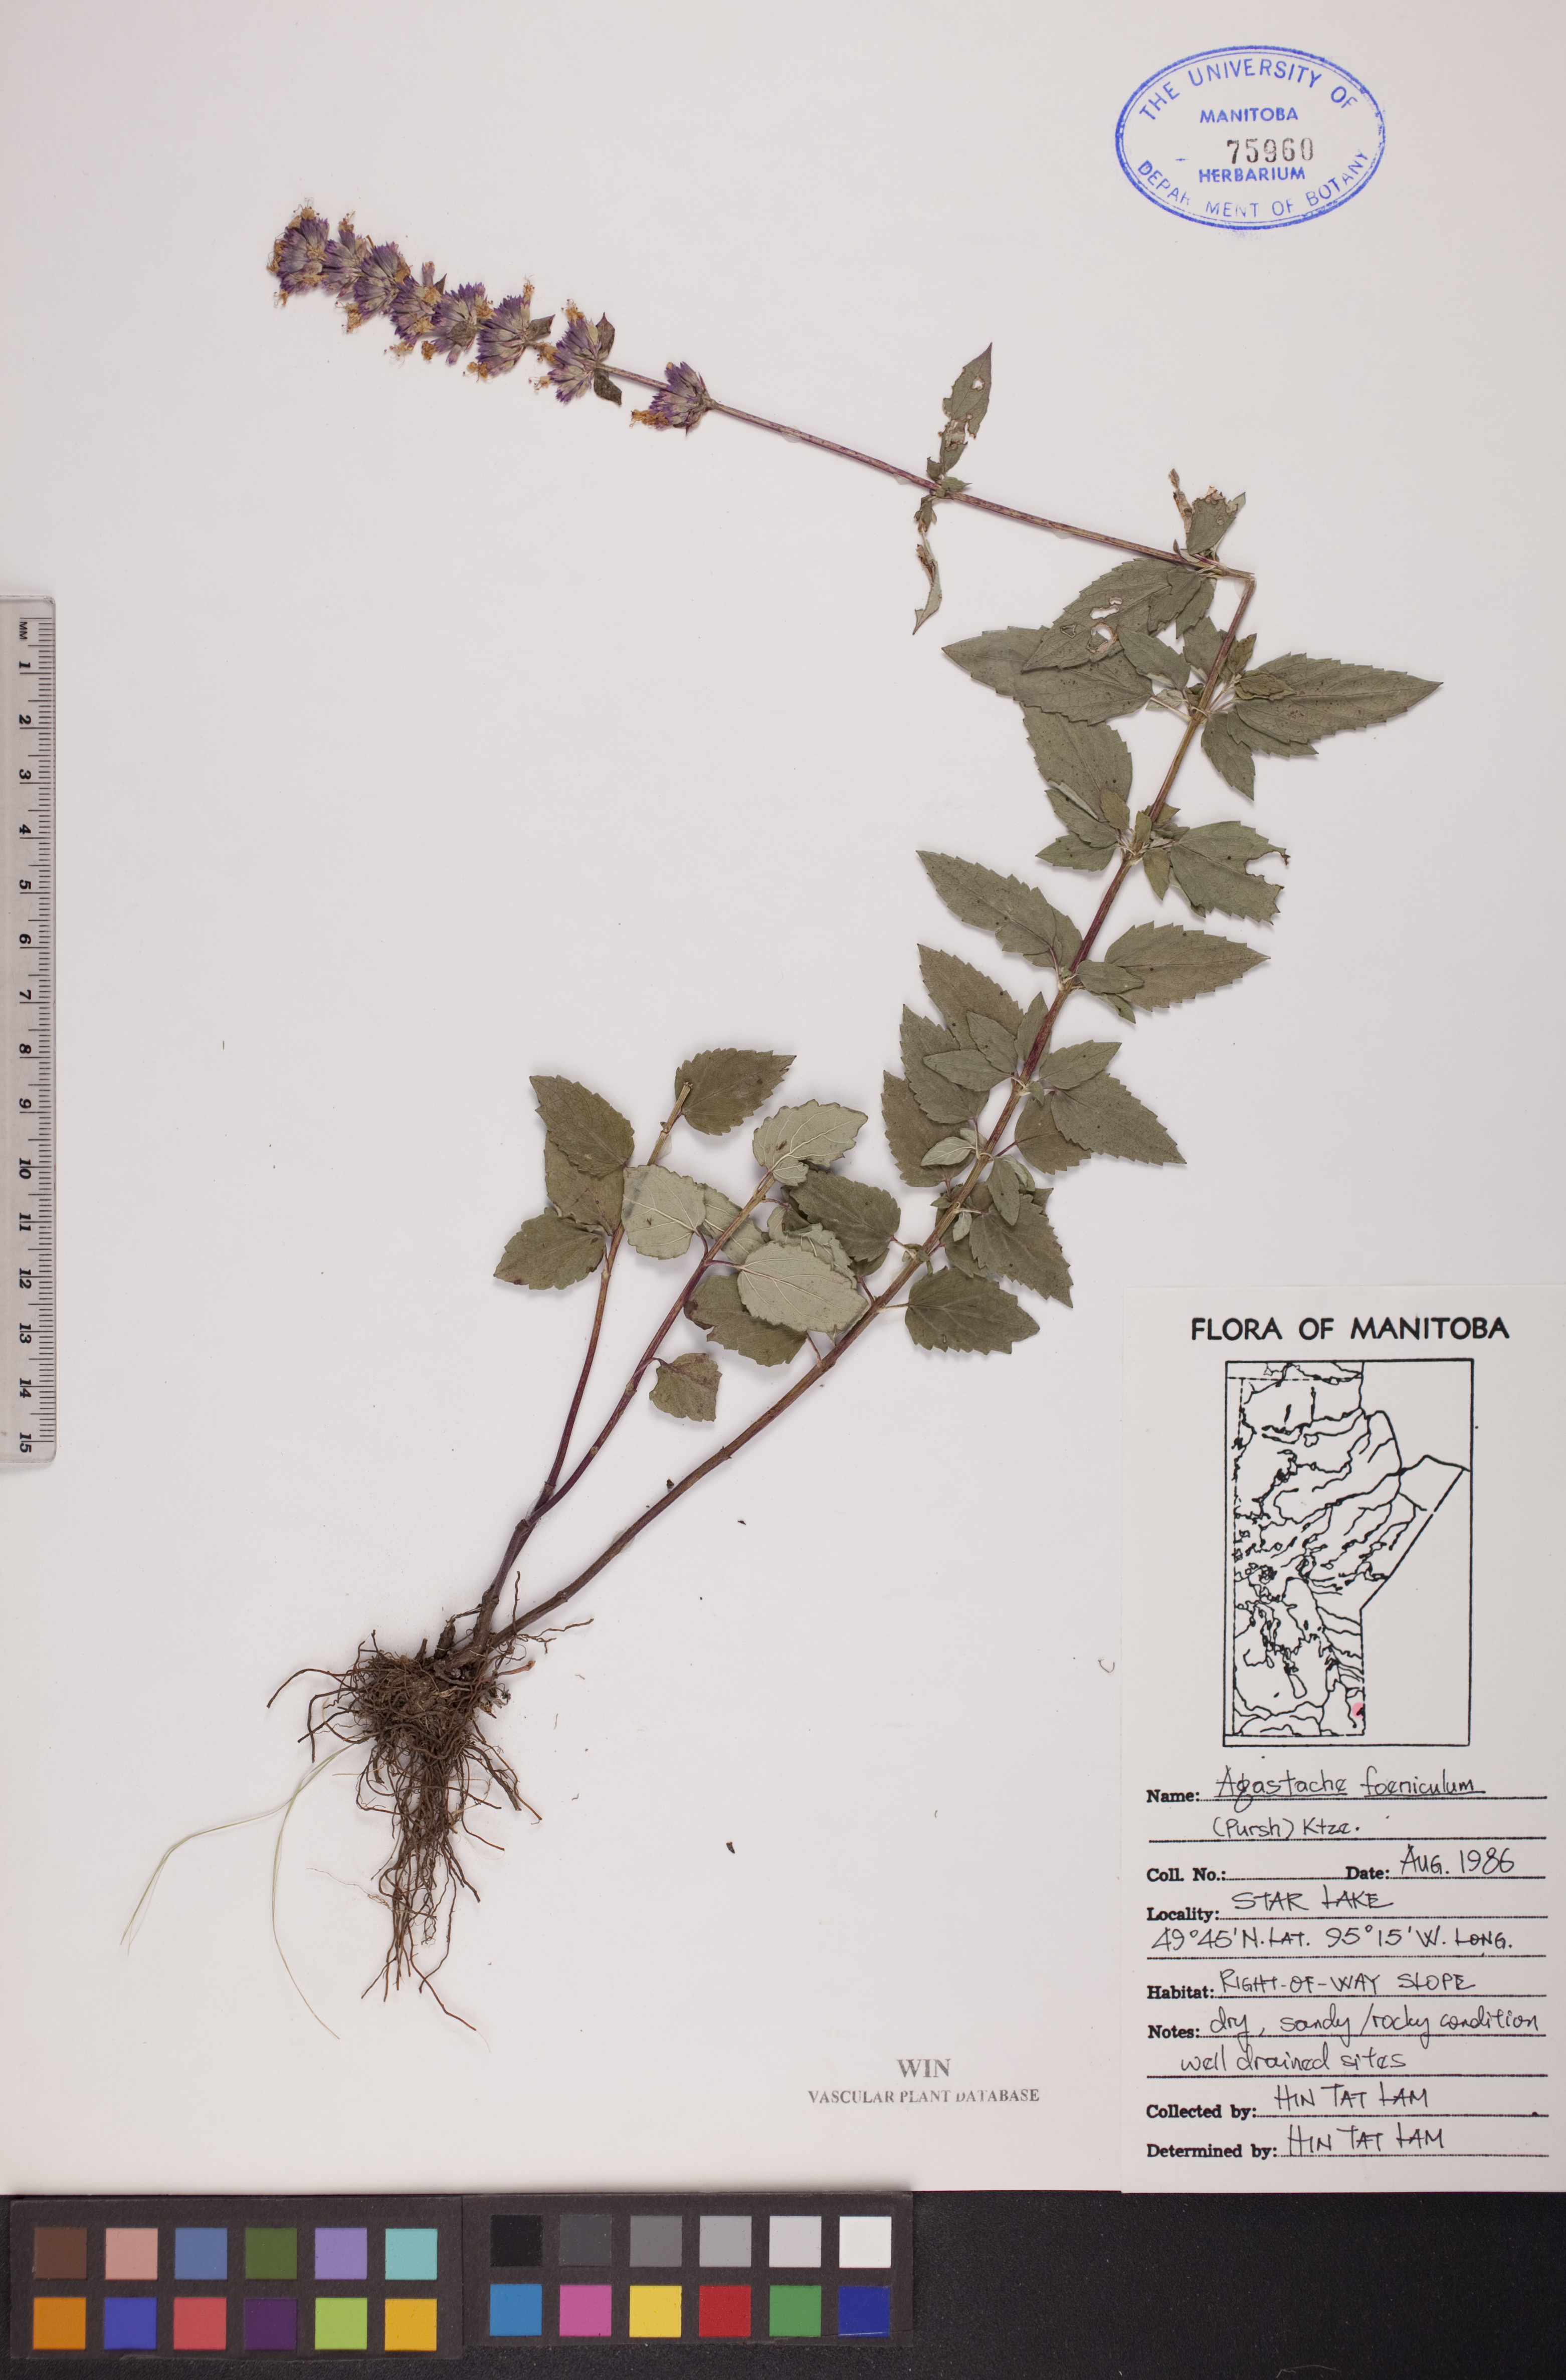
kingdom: Plantae
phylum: Tracheophyta
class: Magnoliopsida
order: Lamiales
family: Lamiaceae
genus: Agastache
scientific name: Agastache foeniculum
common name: Anise hyssop
